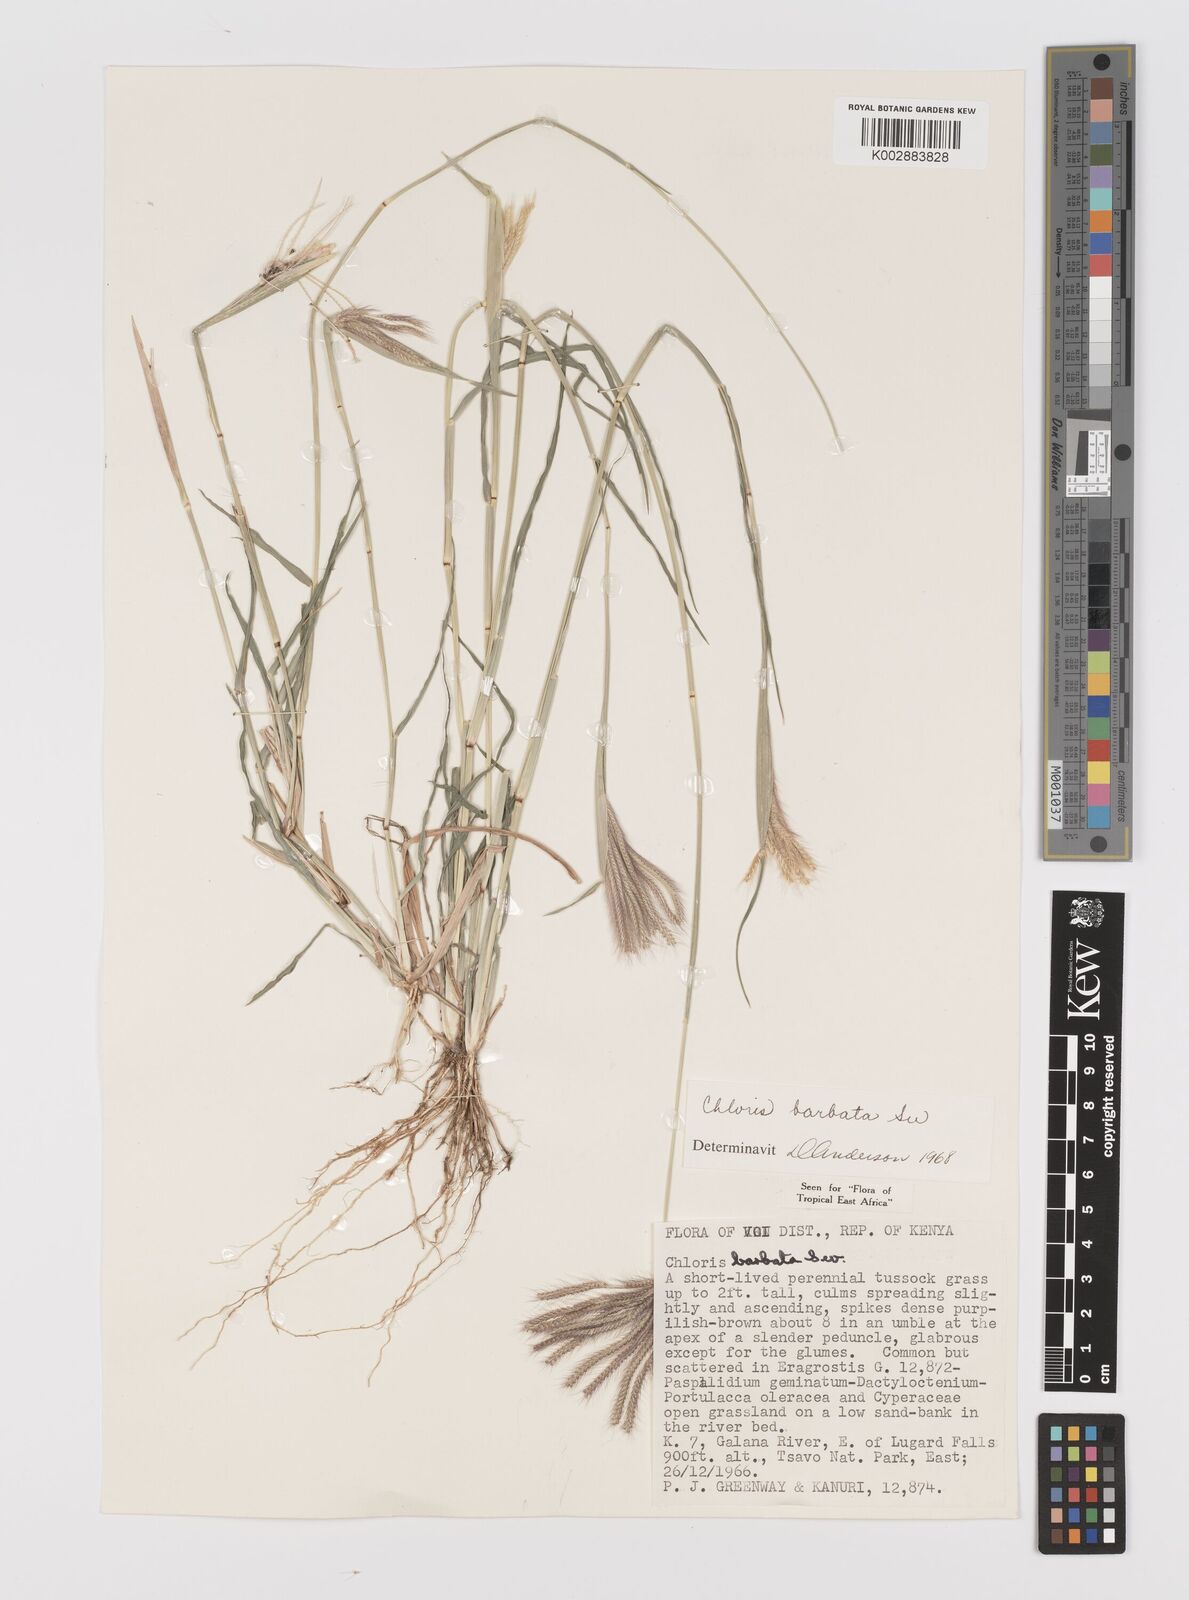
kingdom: Plantae
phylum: Tracheophyta
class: Liliopsida
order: Poales
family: Poaceae
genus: Chloris
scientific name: Chloris barbata
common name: Swollen fingergrass
